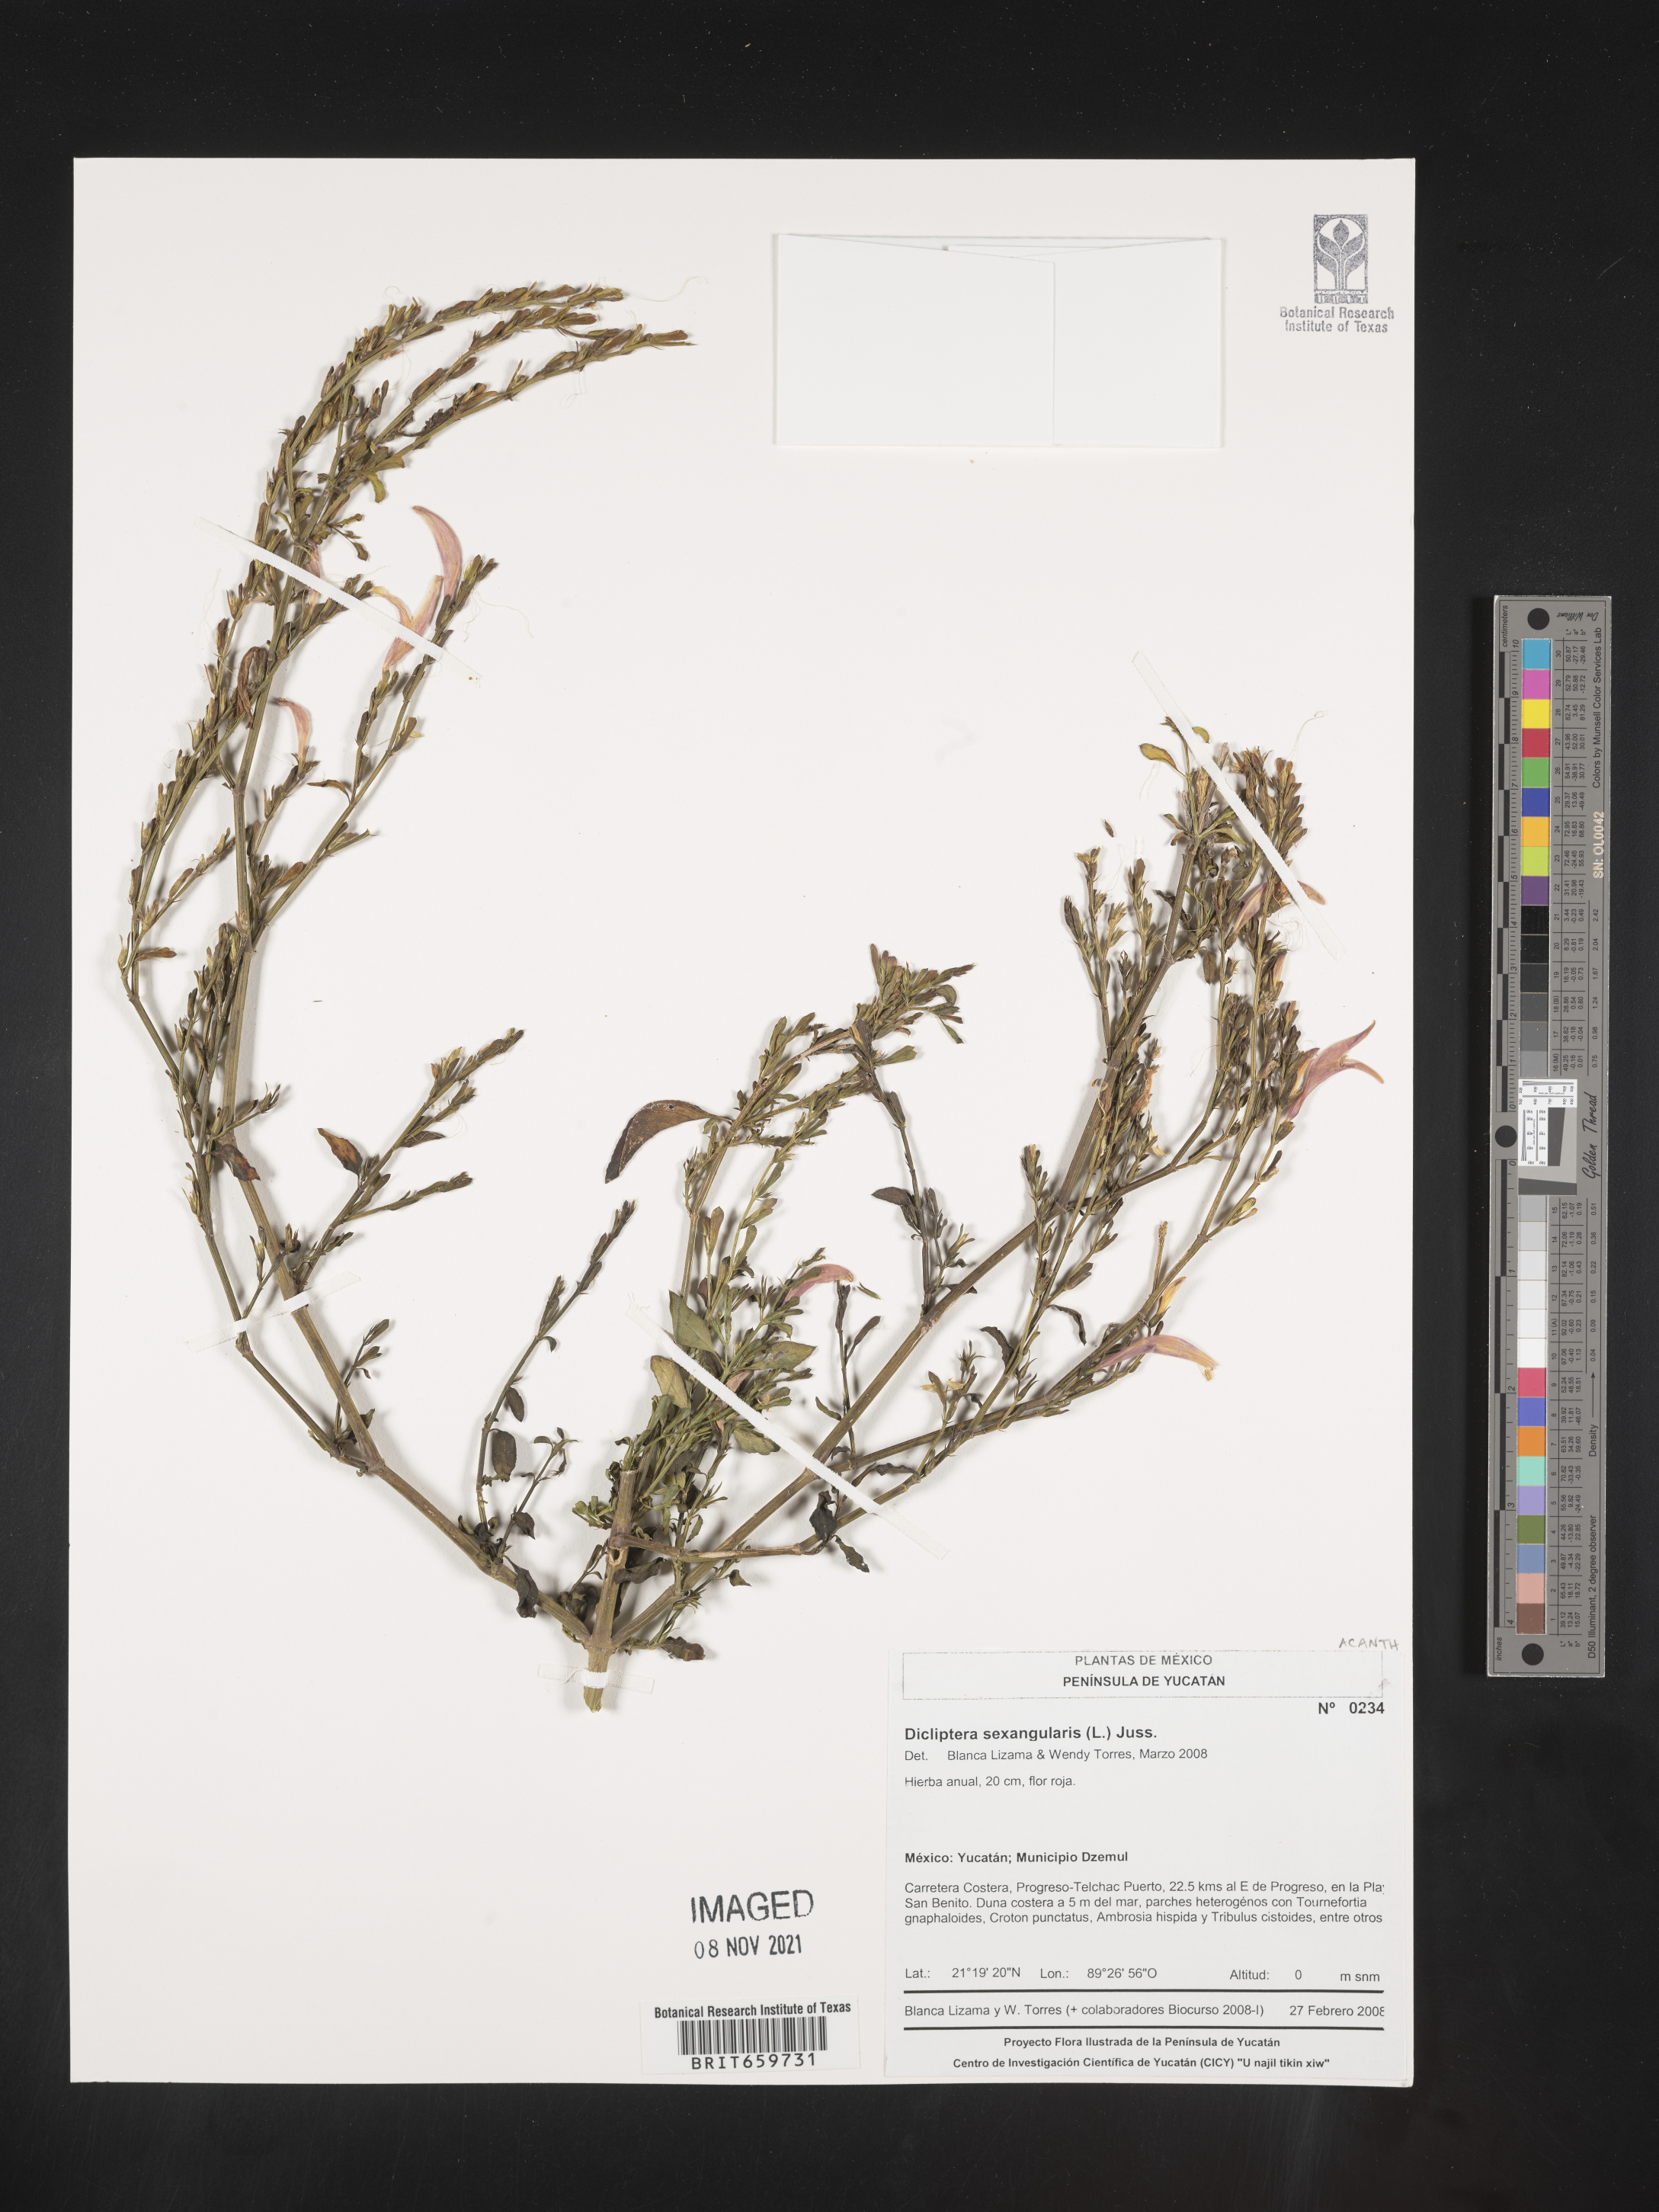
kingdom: Plantae
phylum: Tracheophyta
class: Magnoliopsida
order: Lamiales
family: Acanthaceae
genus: Dicliptera
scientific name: Dicliptera
